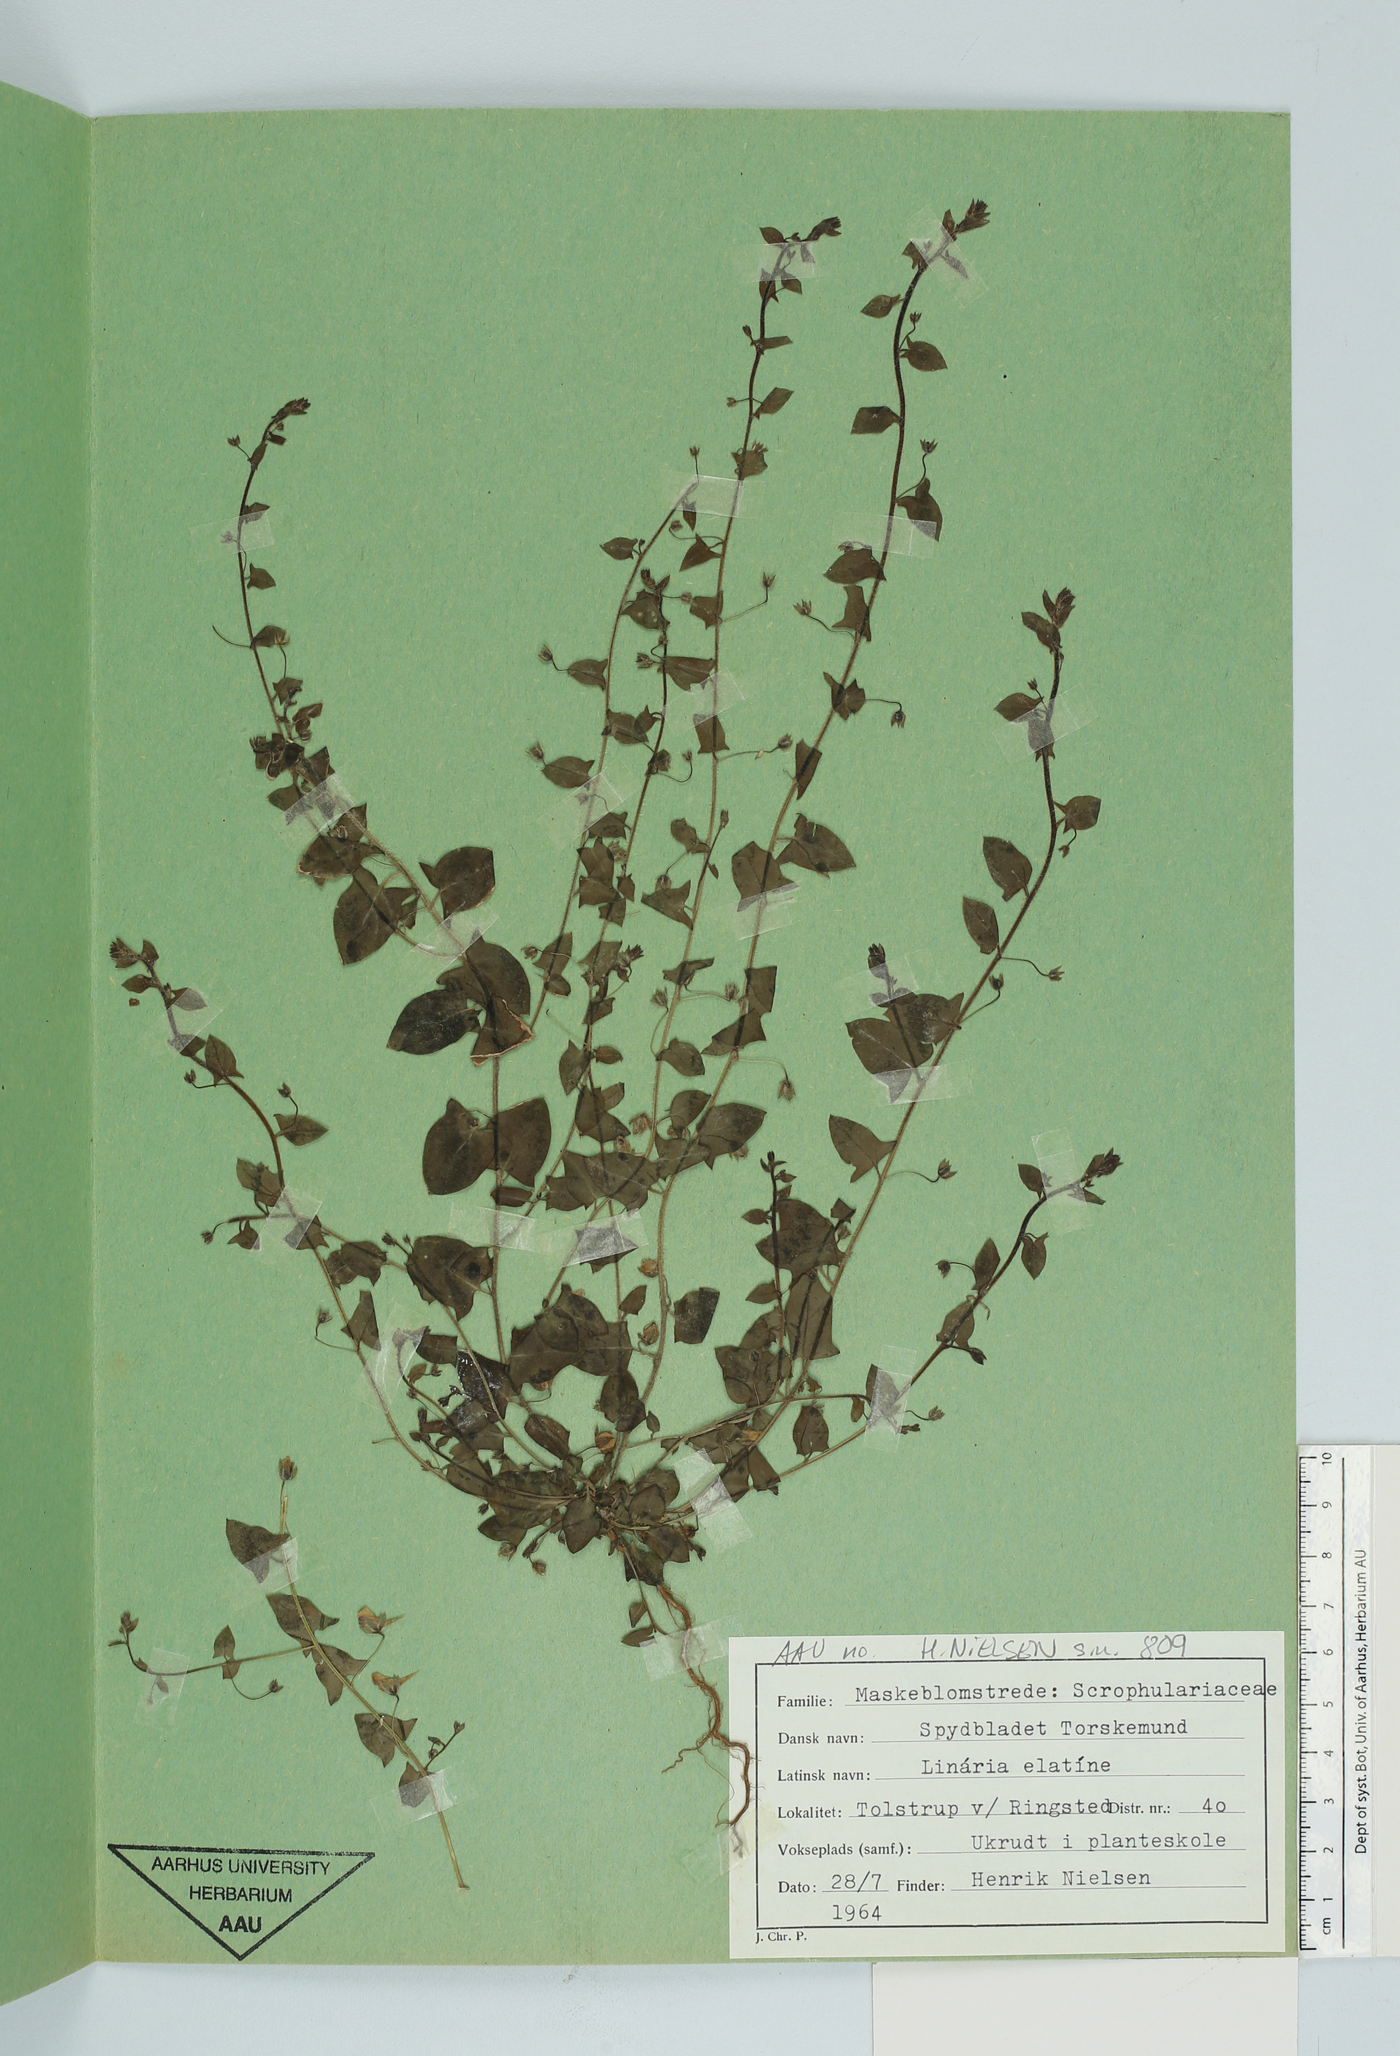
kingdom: Plantae
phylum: Tracheophyta
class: Magnoliopsida
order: Lamiales
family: Plantaginaceae
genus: Kickxia
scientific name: Kickxia elatine
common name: Sharp-leaved fluellen
